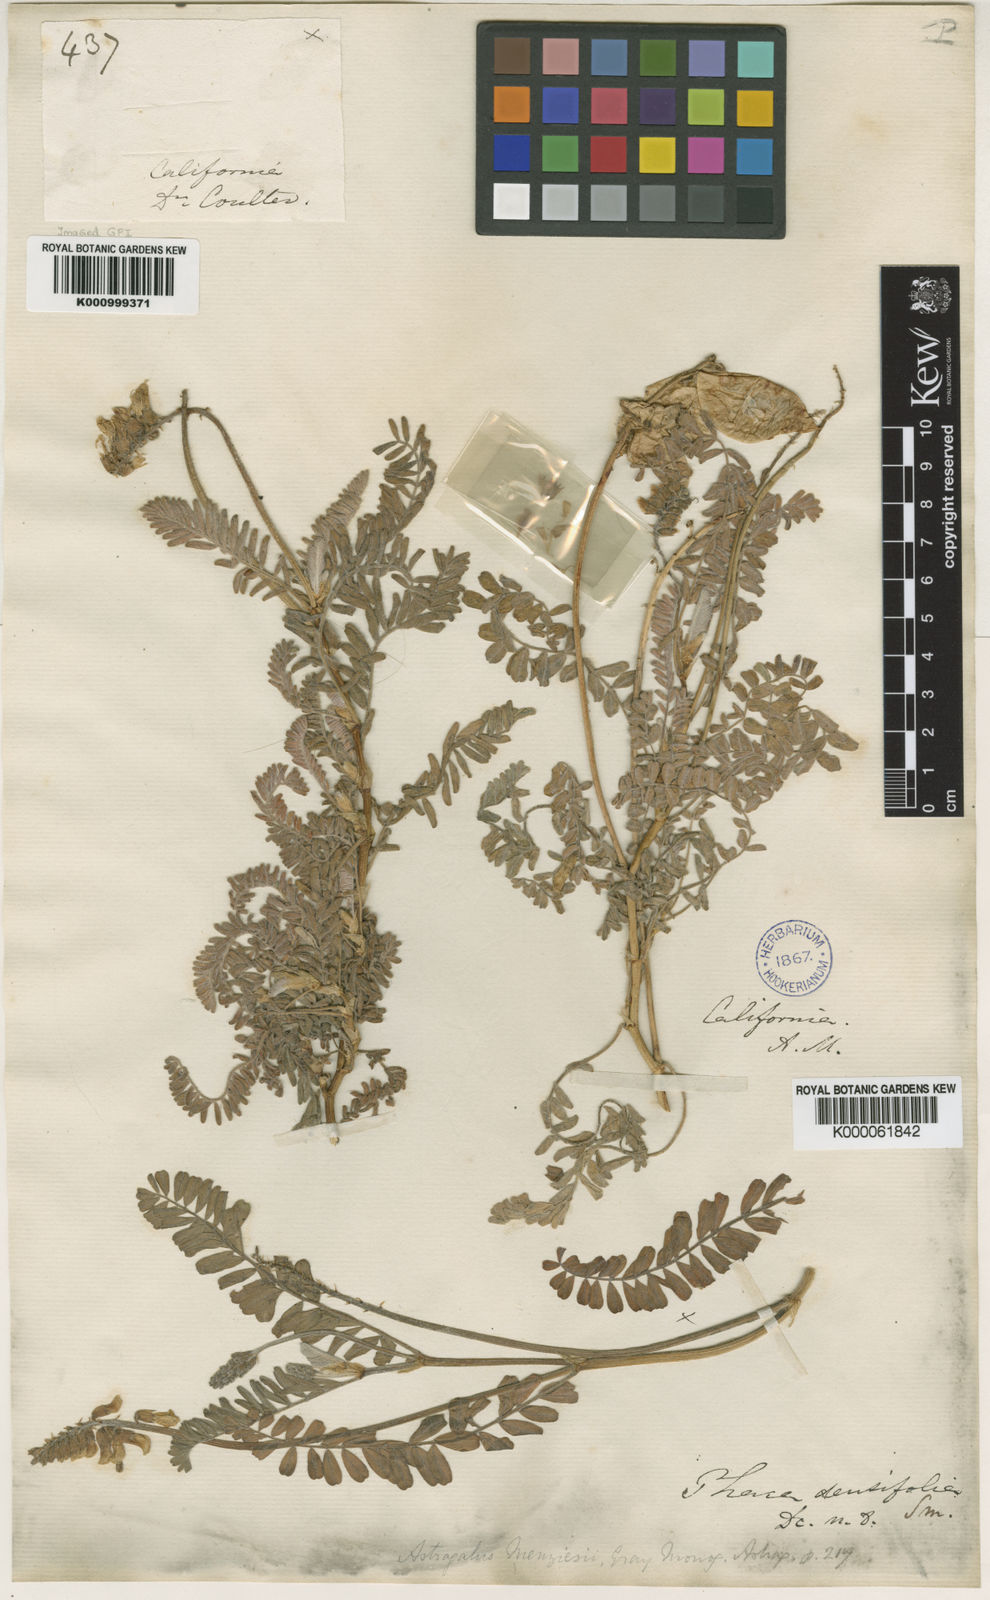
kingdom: Plantae
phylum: Tracheophyta
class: Magnoliopsida
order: Fabales
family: Fabaceae
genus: Astragalus
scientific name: Astragalus nuttallii
